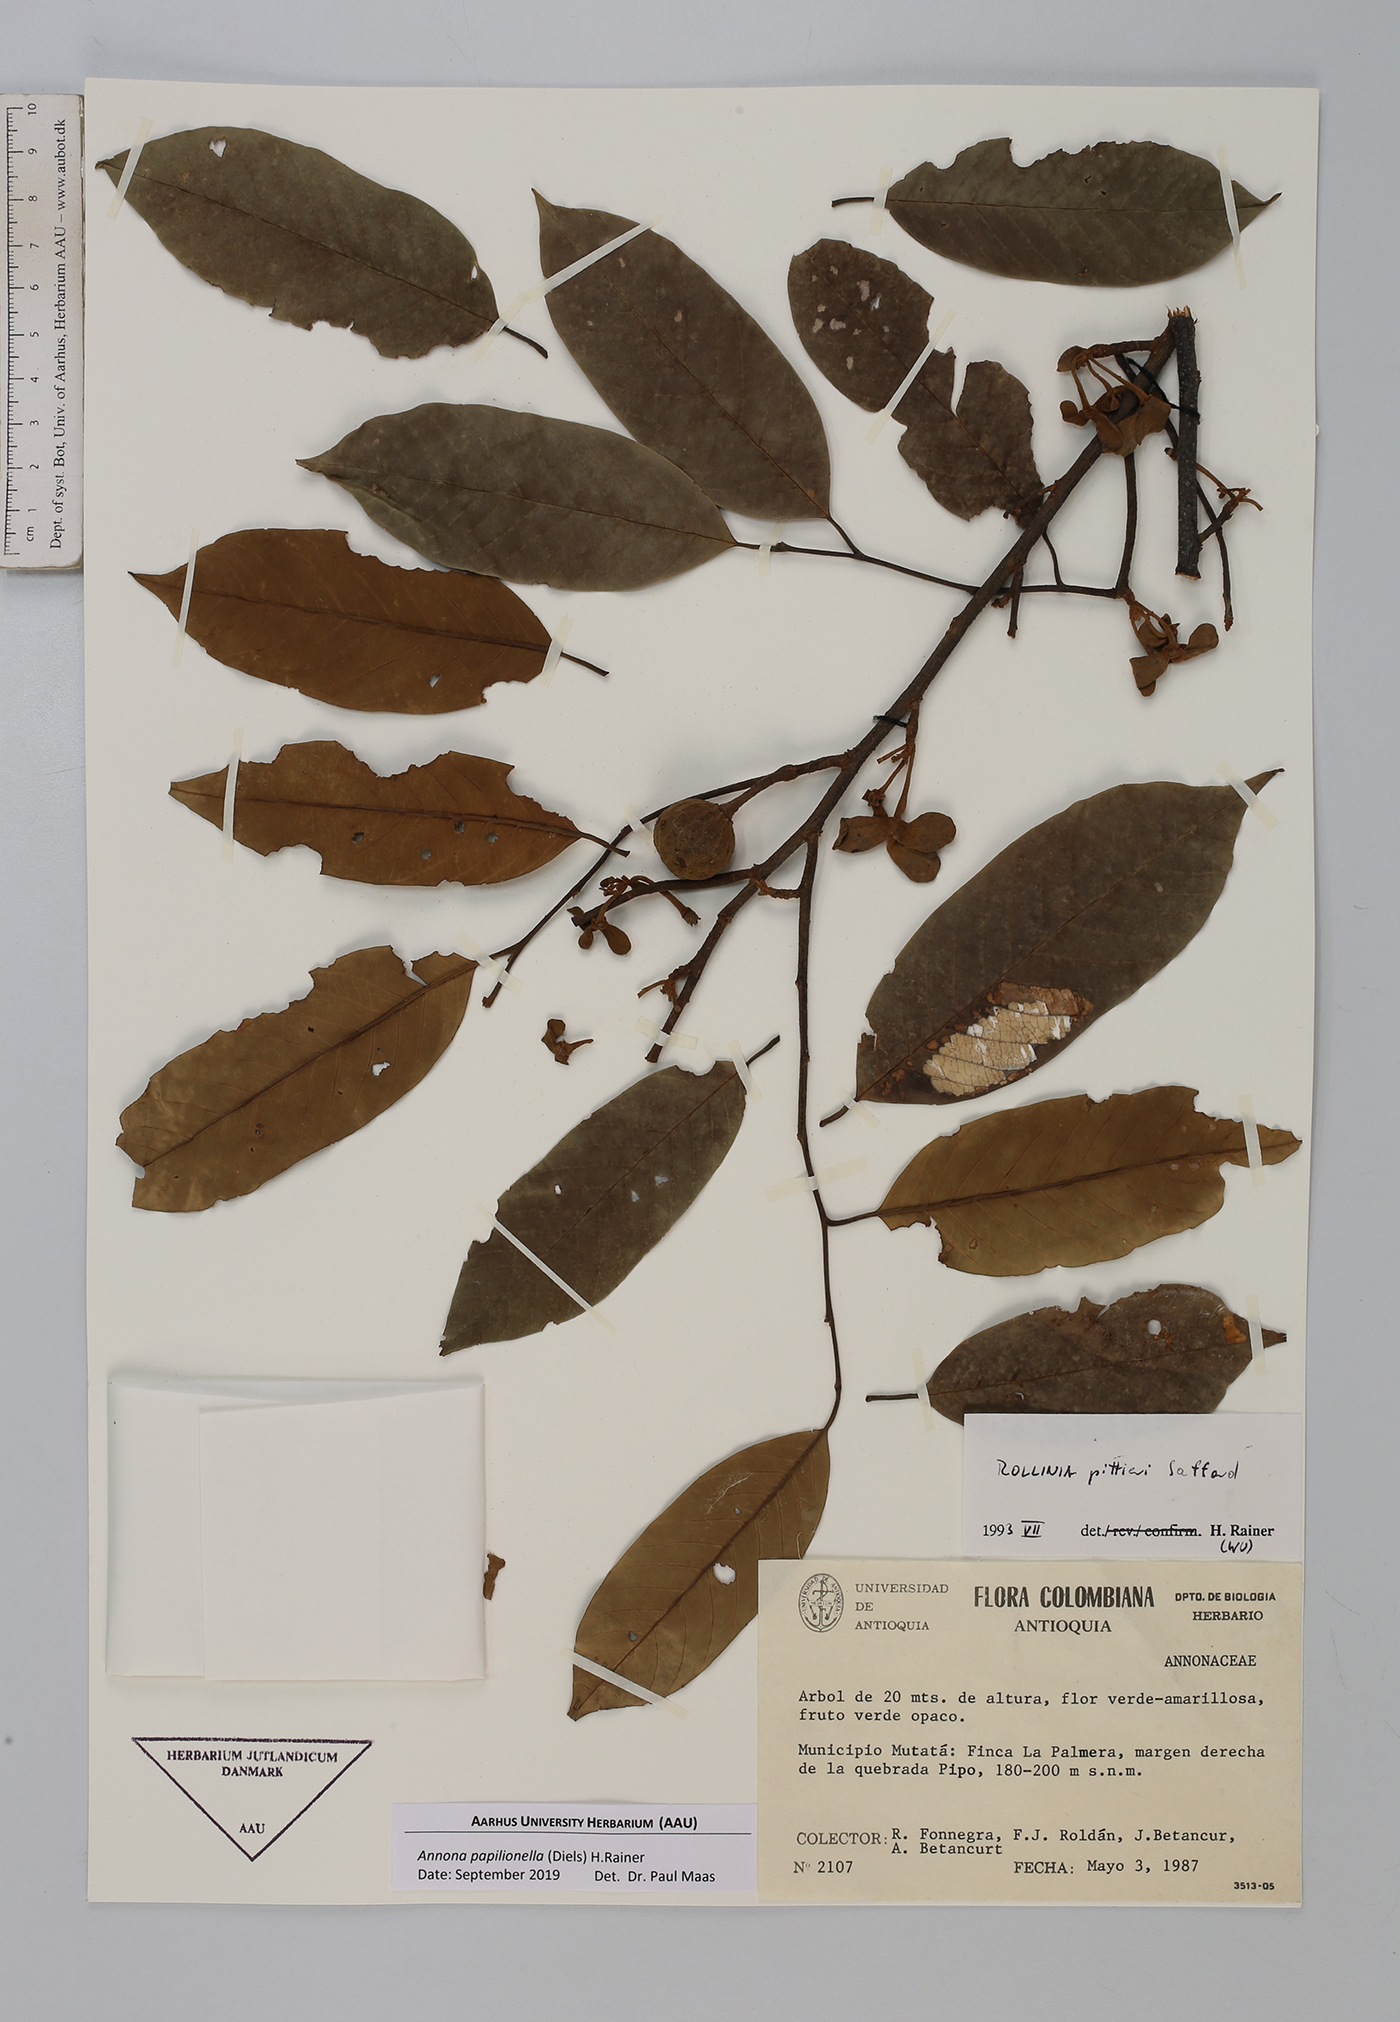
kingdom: Plantae
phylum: Tracheophyta
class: Magnoliopsida
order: Magnoliales
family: Annonaceae
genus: Annona
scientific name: Annona papilionella
